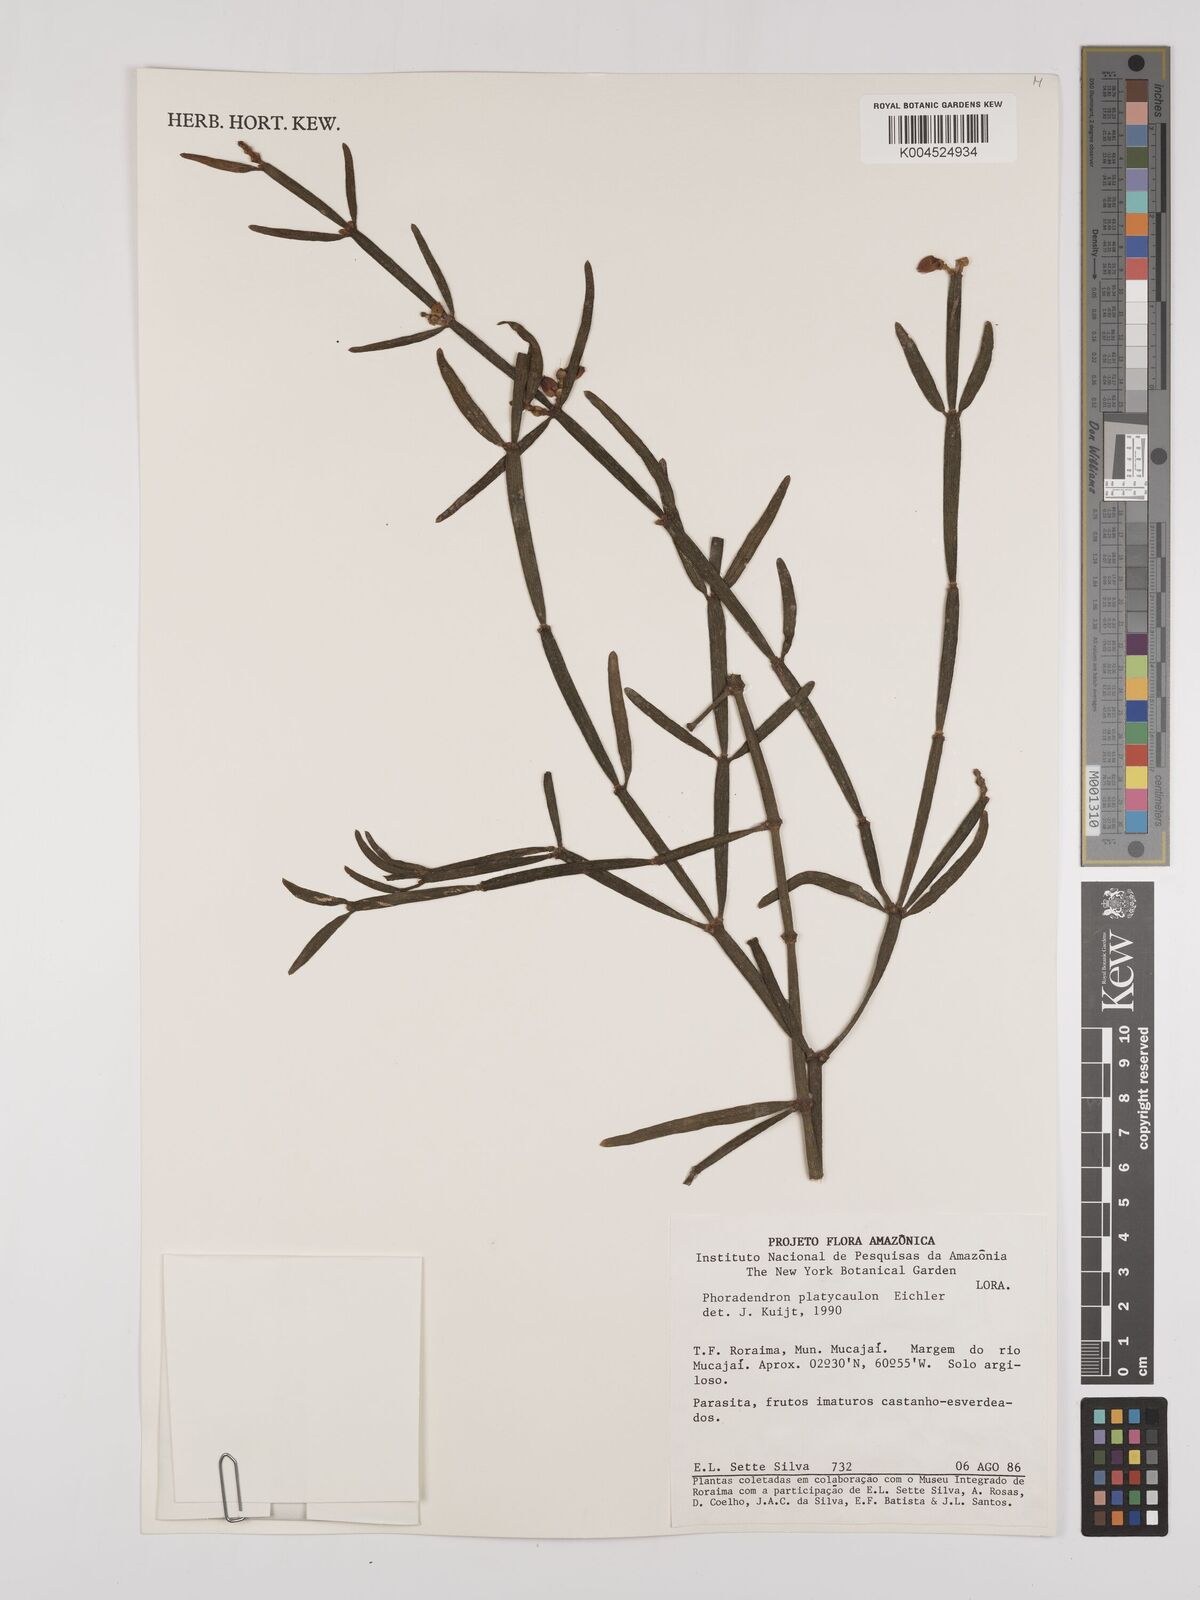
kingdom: Plantae
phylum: Tracheophyta
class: Magnoliopsida
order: Santalales
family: Viscaceae
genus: Phoradendron
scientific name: Phoradendron planiphyllum
